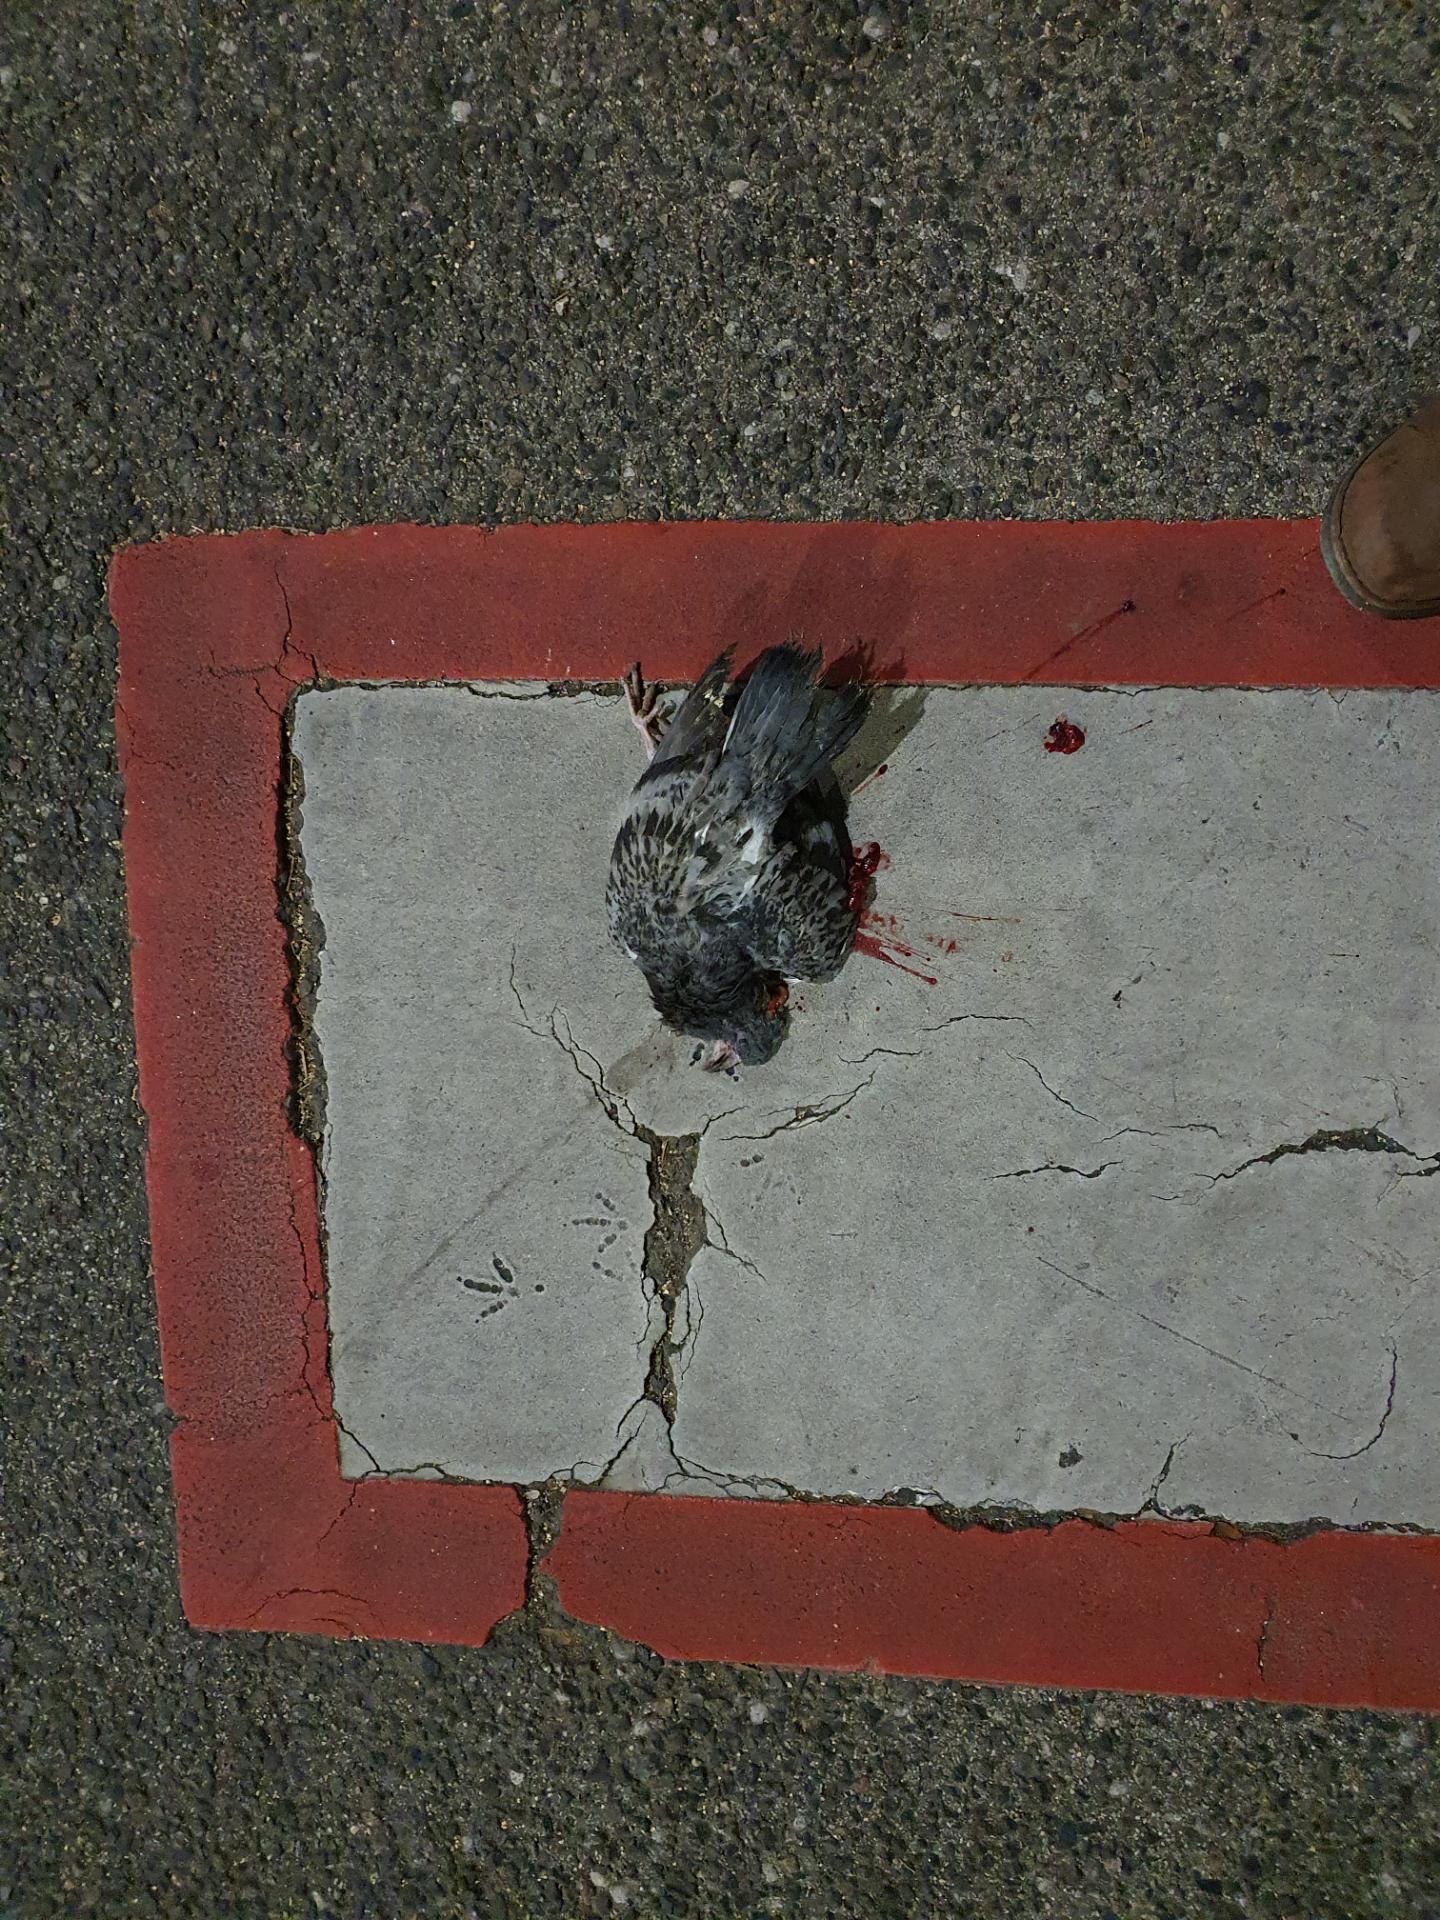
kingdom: Animalia
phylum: Chordata
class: Aves
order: Columbiformes
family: Columbidae
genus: Columba
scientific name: Columba livia
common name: Rock pigeon
